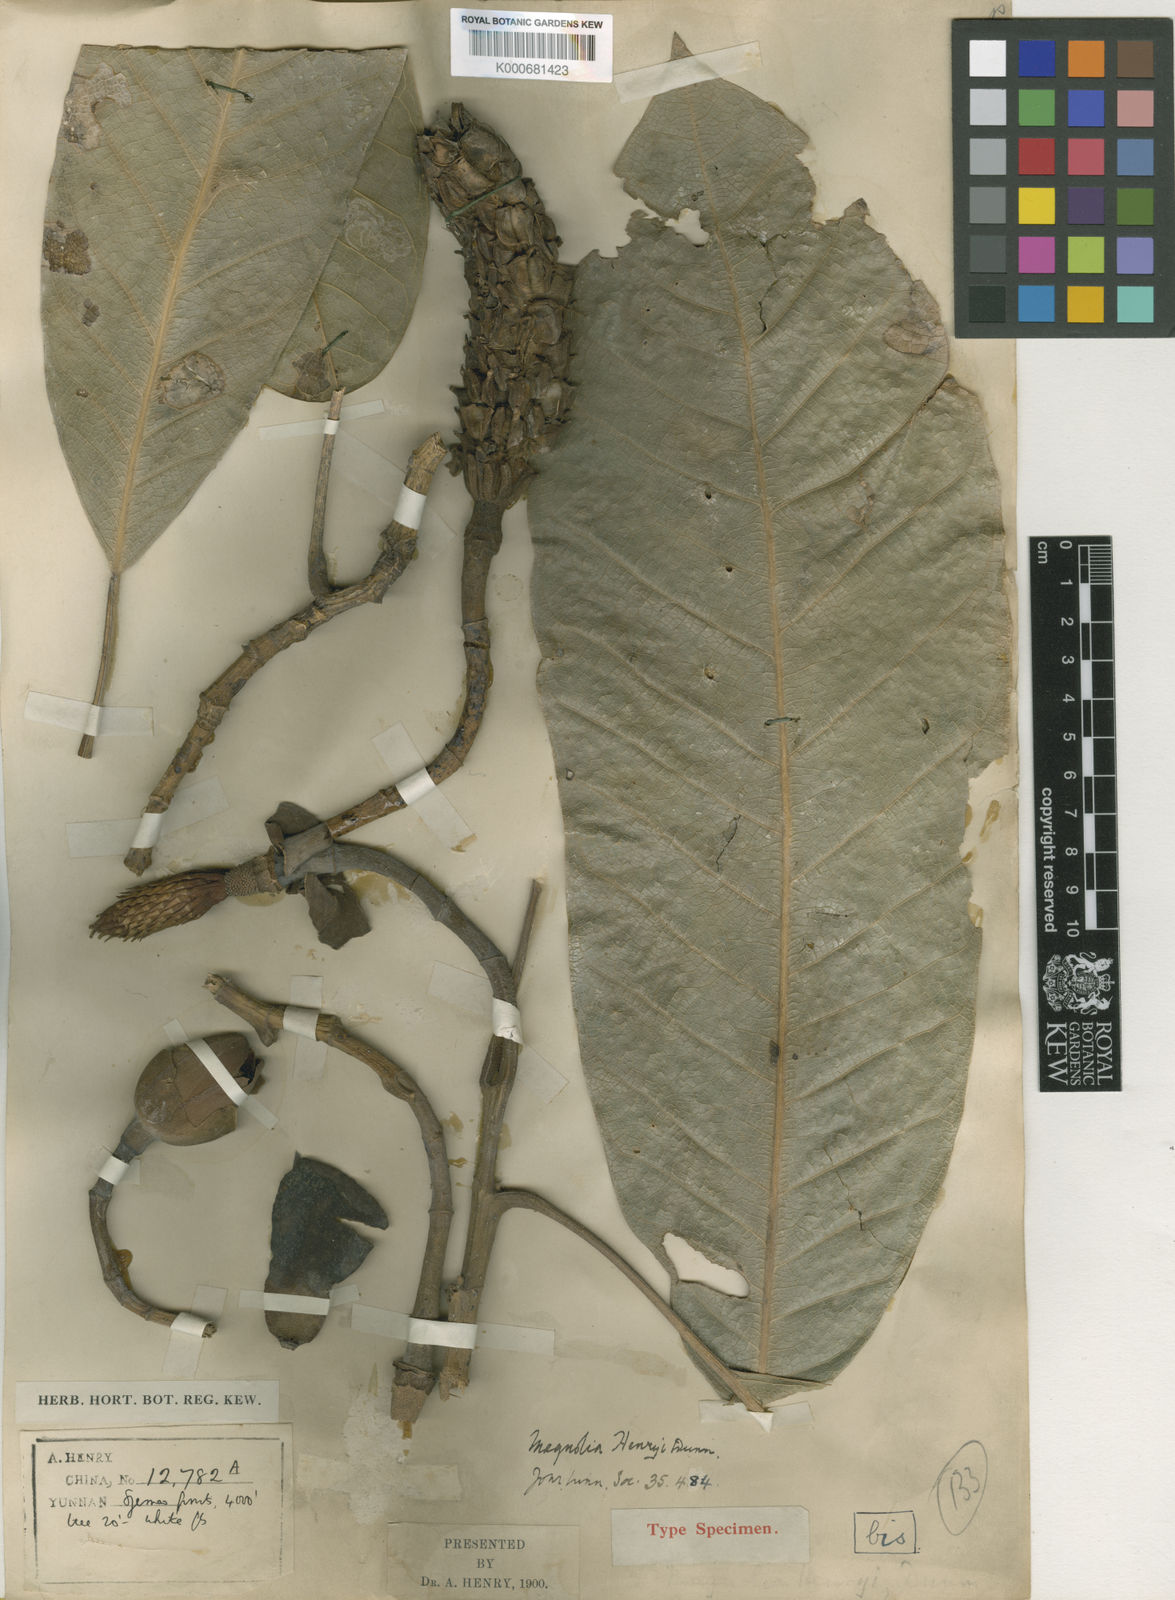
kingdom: Plantae
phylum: Tracheophyta
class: Magnoliopsida
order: Magnoliales
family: Magnoliaceae
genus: Magnolia
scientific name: Magnolia henryi
